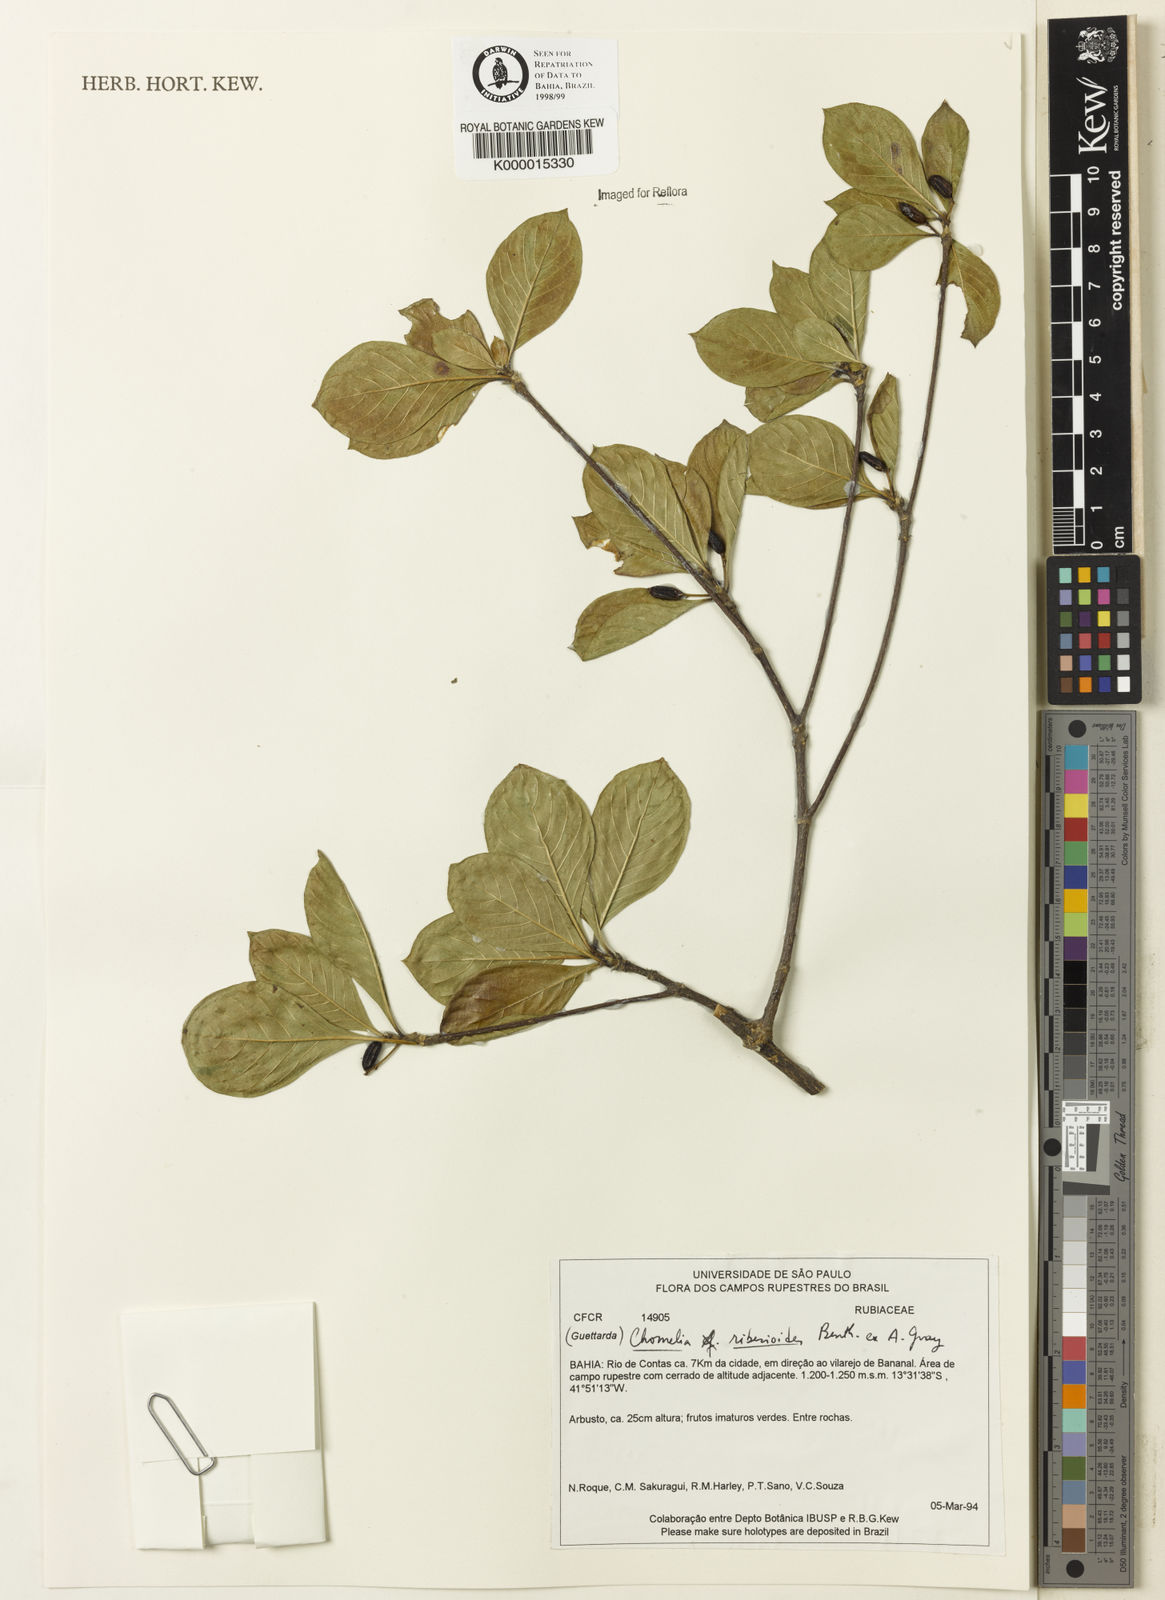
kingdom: Plantae
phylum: Tracheophyta
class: Magnoliopsida
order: Gentianales
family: Rubiaceae
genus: Chomelia
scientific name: Chomelia ribesioides
